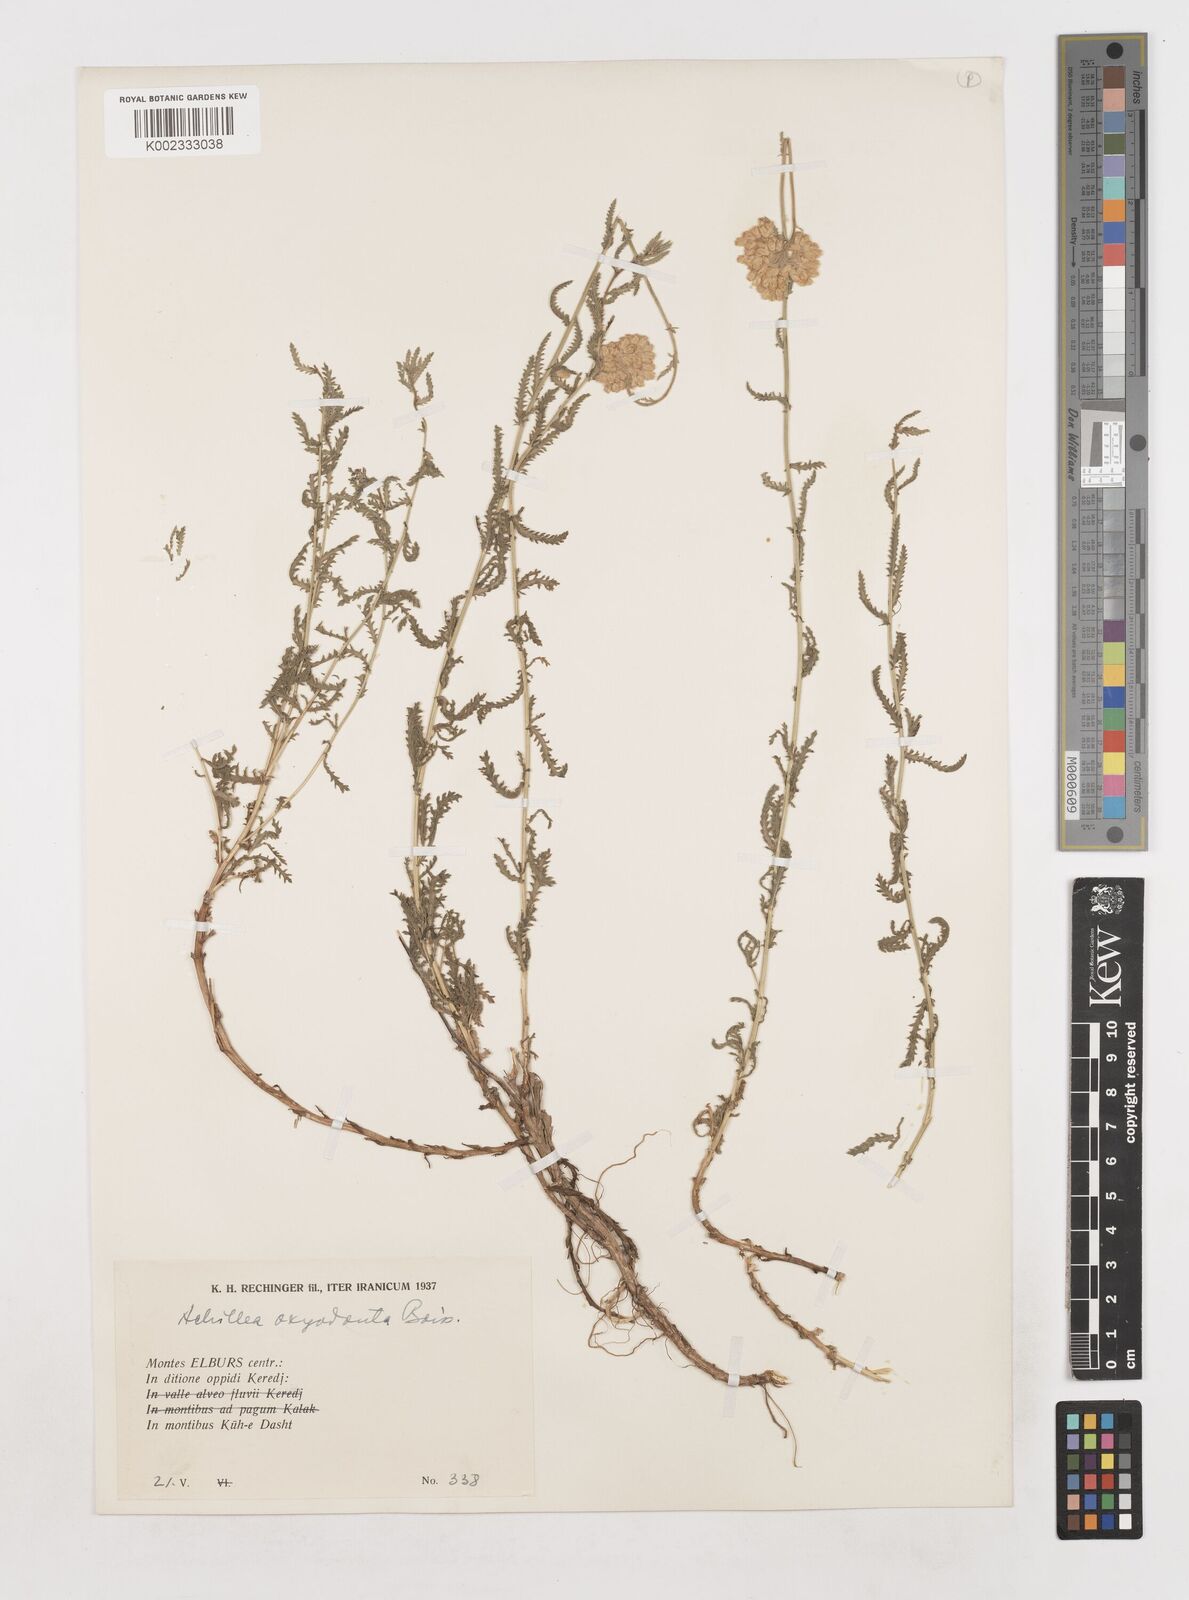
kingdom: Plantae
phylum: Tracheophyta
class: Magnoliopsida
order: Asterales
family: Asteraceae
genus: Achillea
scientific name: Achillea oxyodonta
